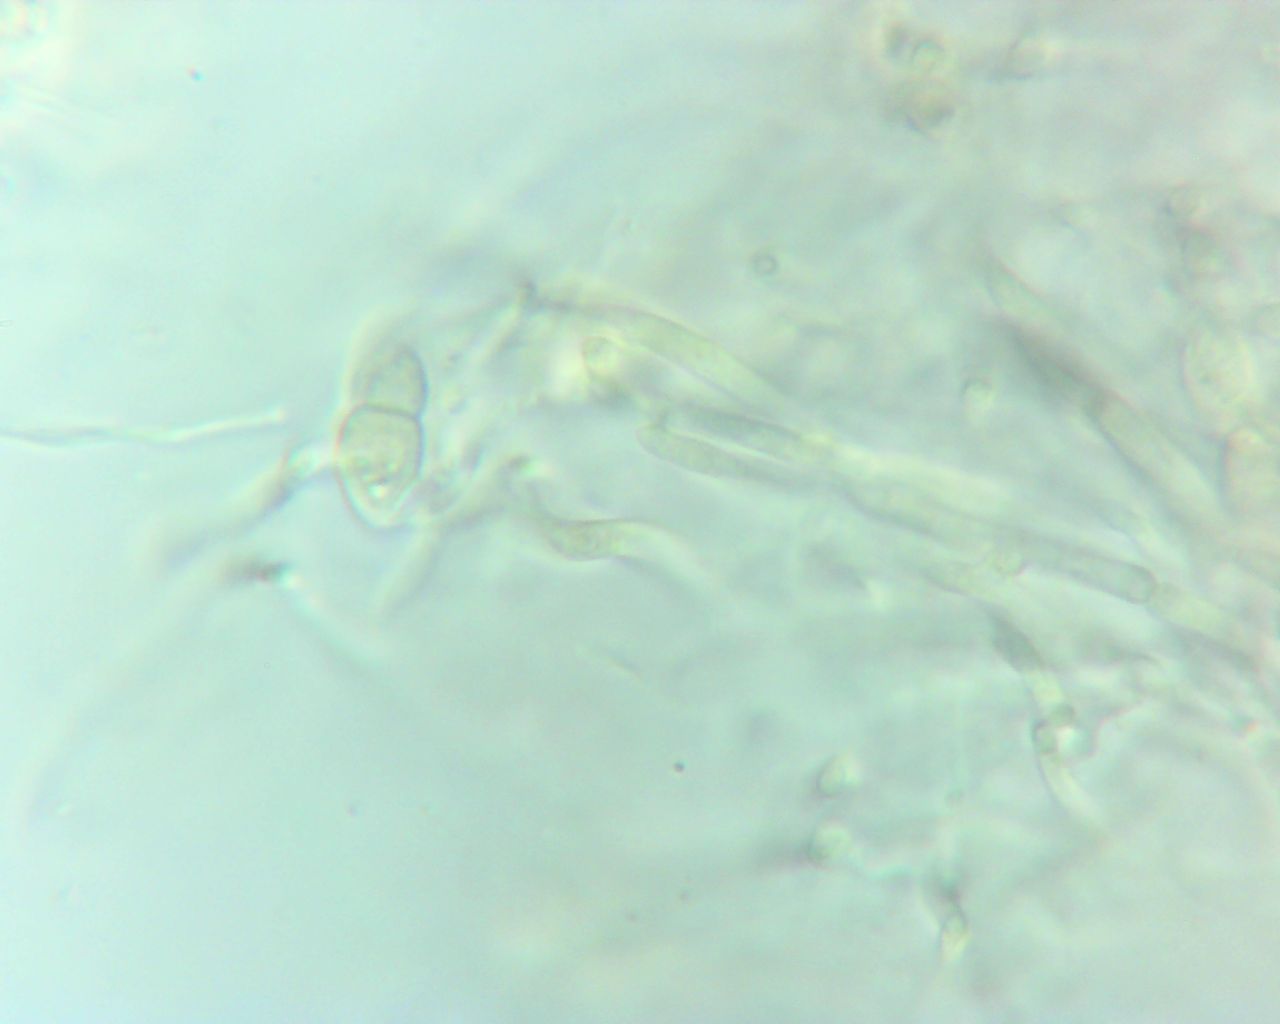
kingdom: Fungi
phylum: Ascomycota
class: Dothideomycetes
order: Pleosporales
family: Melanommataceae
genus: Melanomma
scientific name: Melanomma pulvis-pyrius
